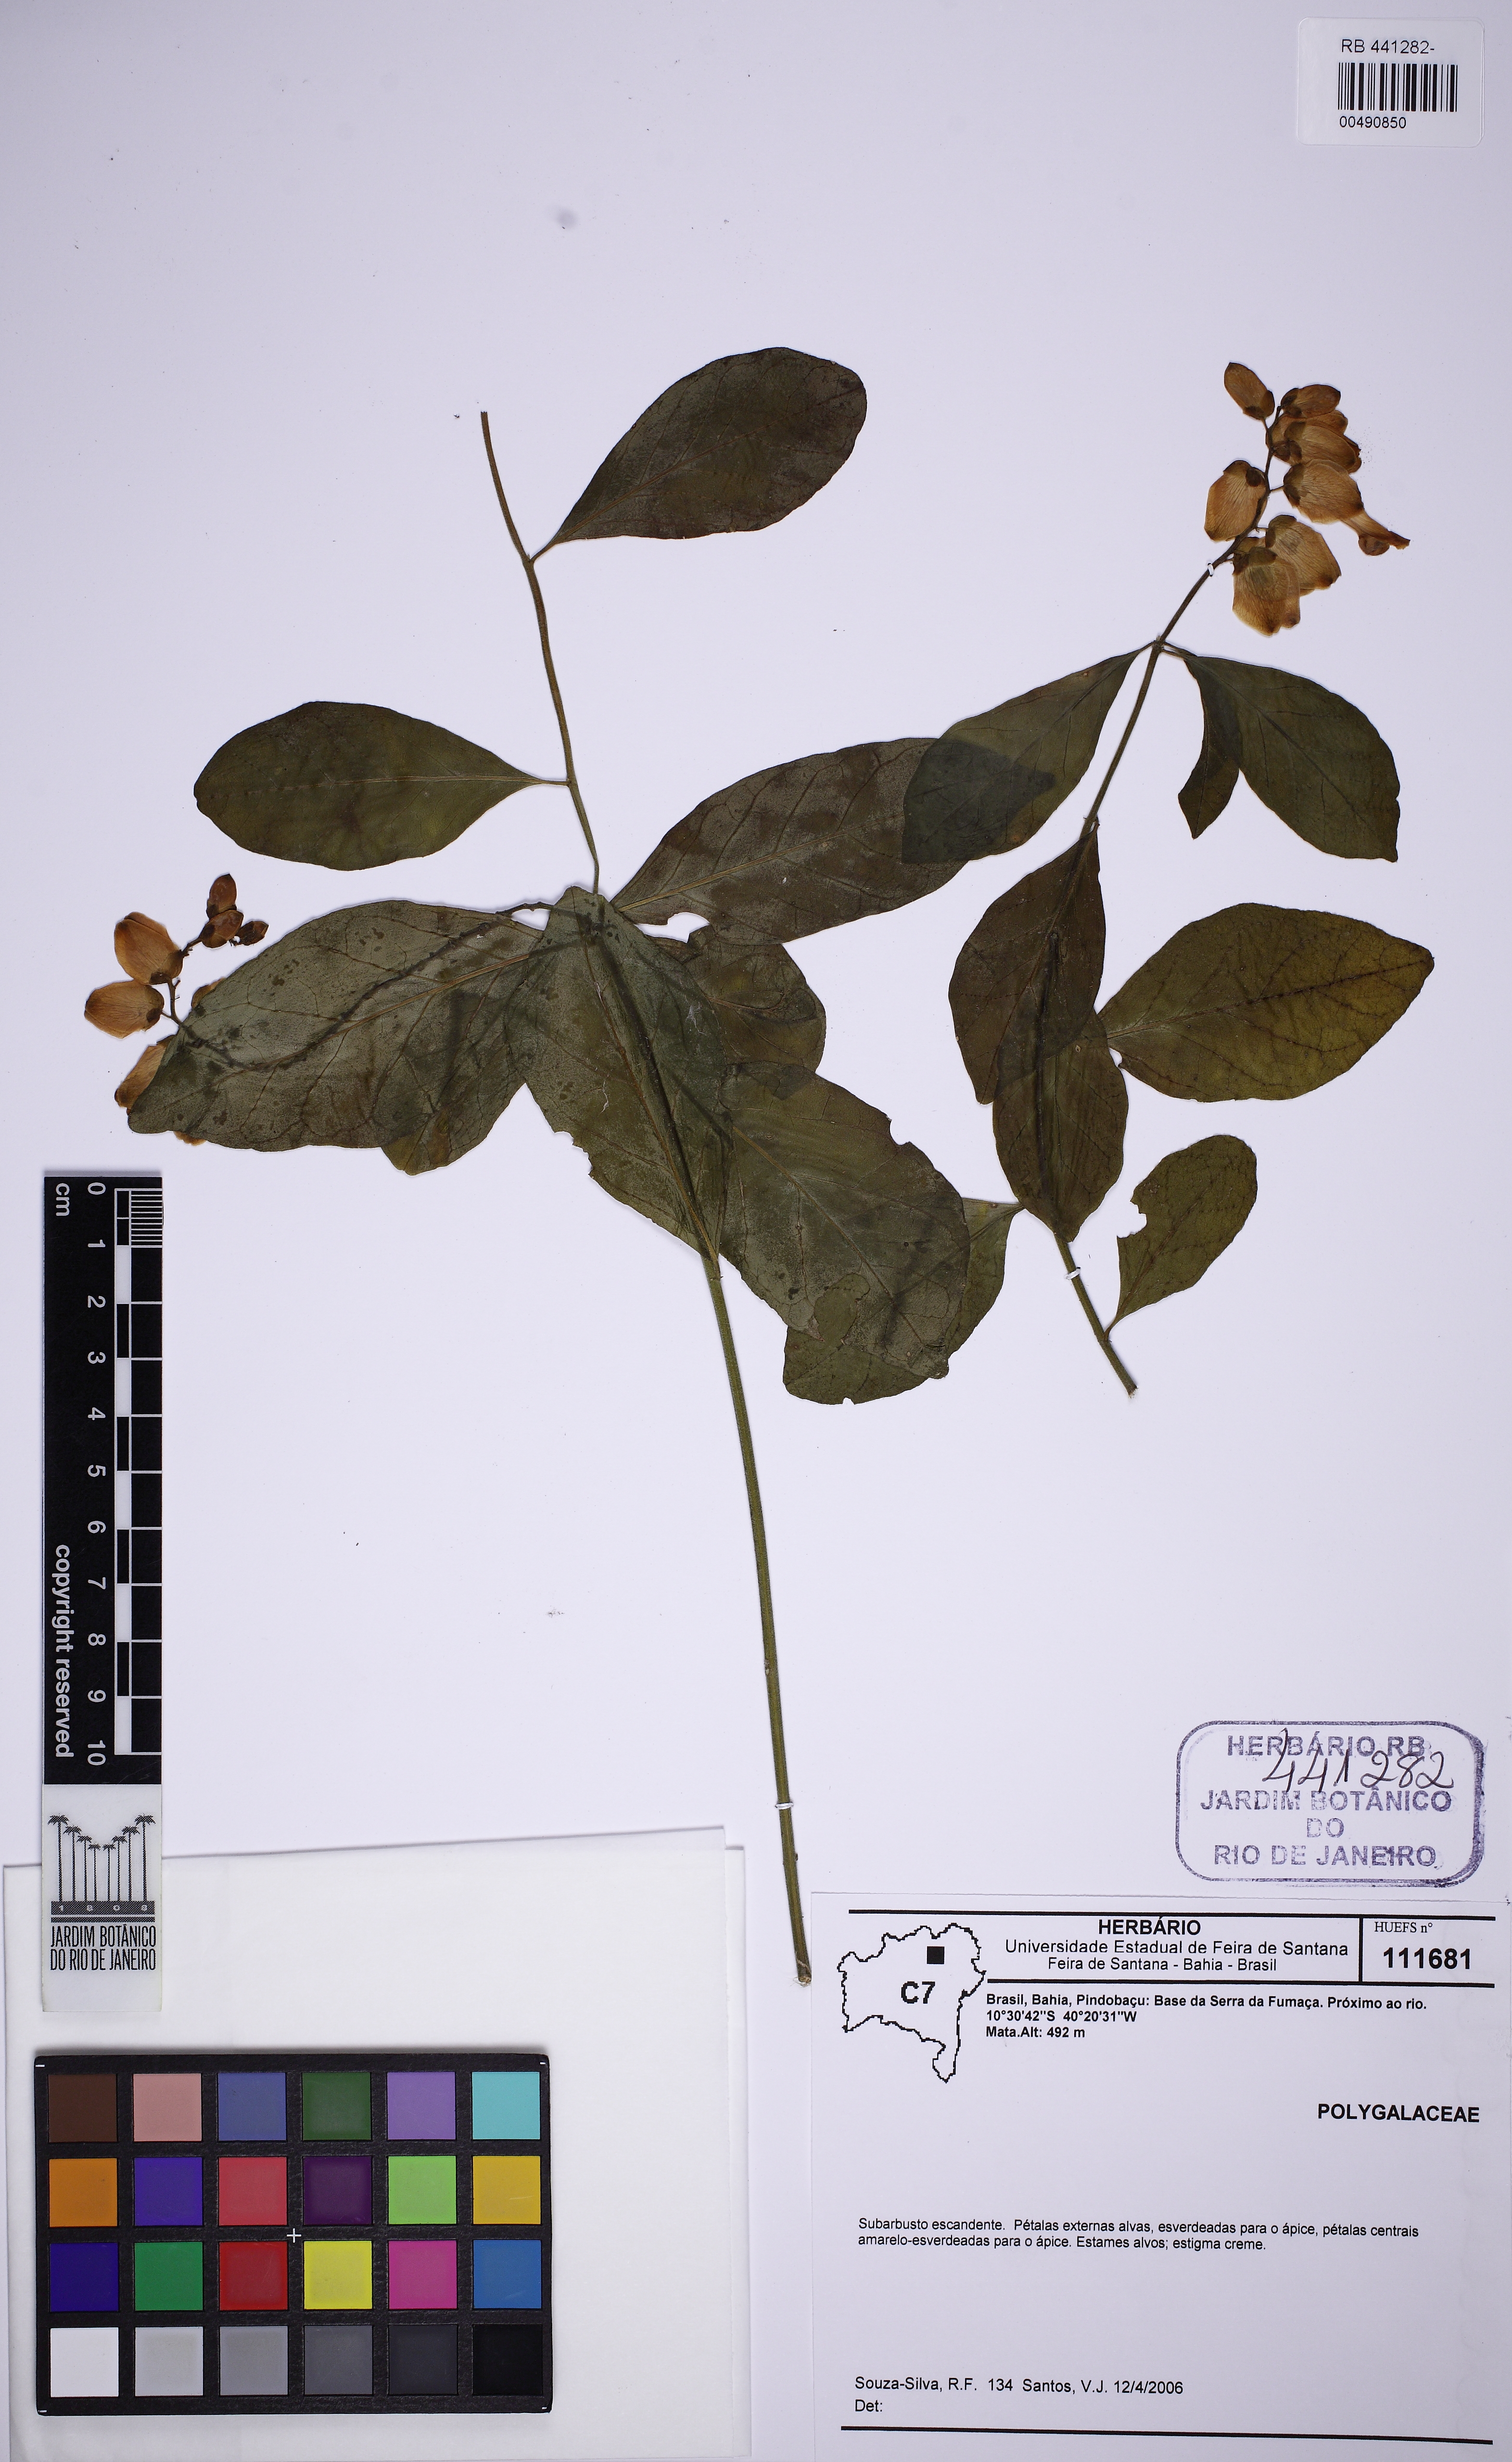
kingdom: Plantae
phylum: Tracheophyta
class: Magnoliopsida
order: Fabales
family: Polygalaceae
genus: Caamembeca
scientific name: Caamembeca
